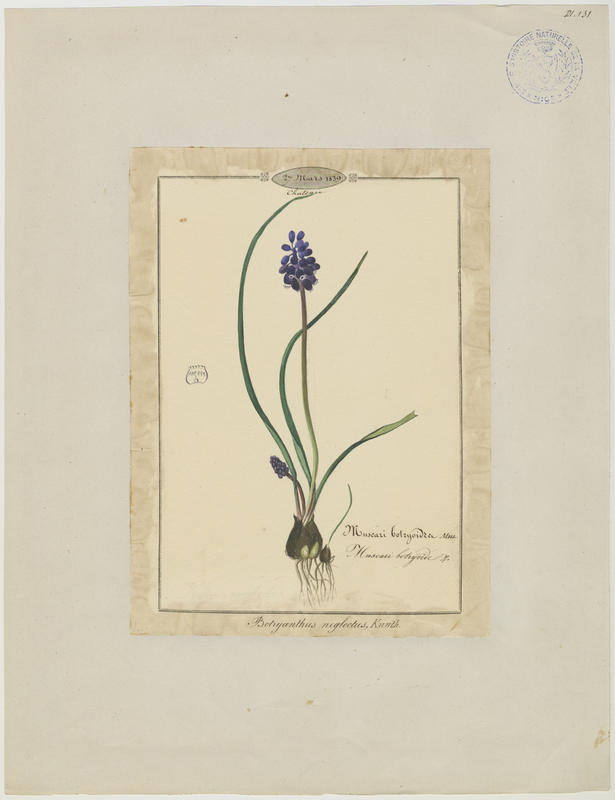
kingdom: Plantae
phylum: Tracheophyta
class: Liliopsida
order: Asparagales
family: Asparagaceae
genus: Muscari
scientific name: Muscari neglectum
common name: Grape-hyacinth
